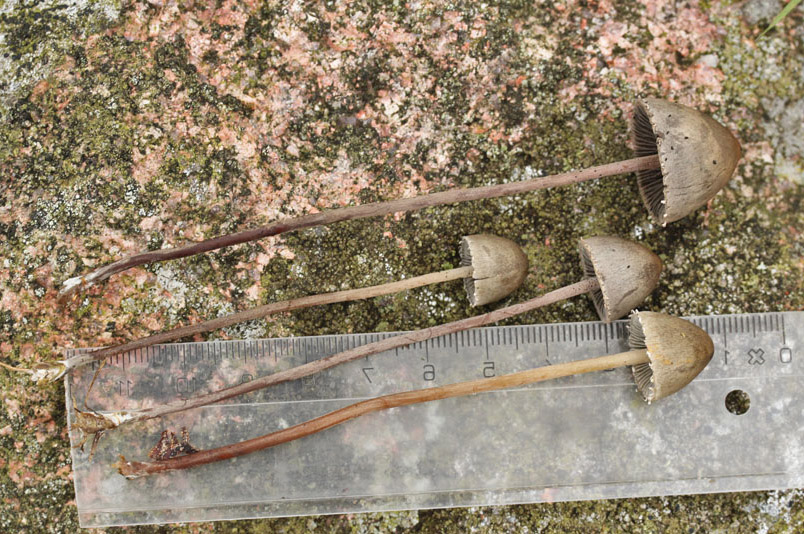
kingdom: Fungi
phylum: Basidiomycota
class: Agaricomycetes
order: Agaricales
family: Bolbitiaceae
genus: Panaeolus
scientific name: Panaeolus papilionaceus
